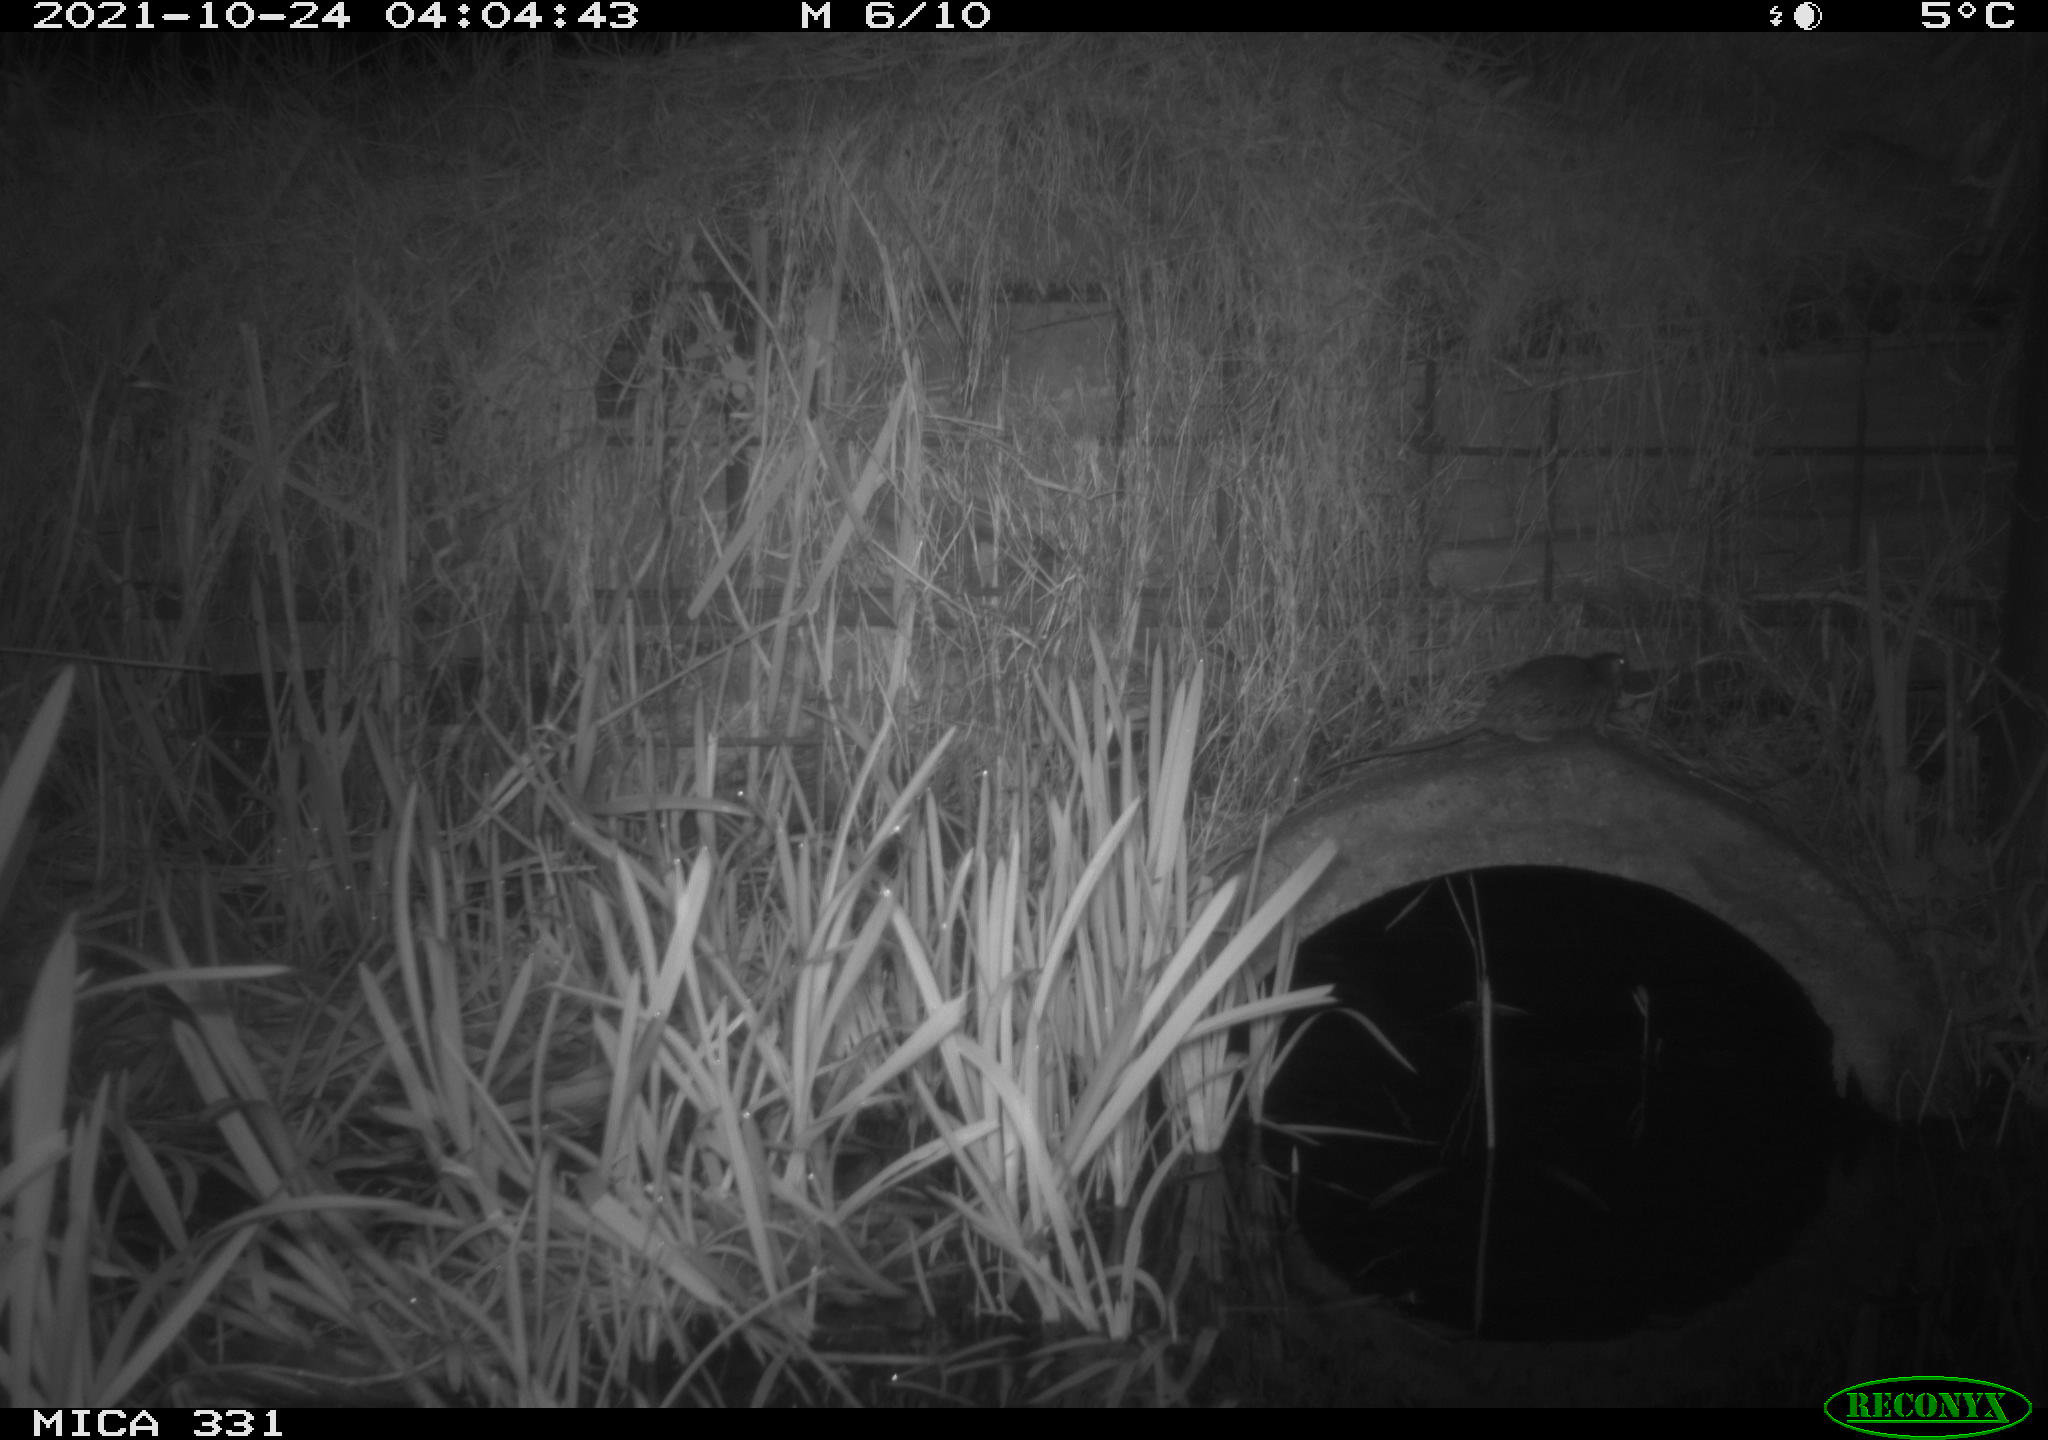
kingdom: Animalia
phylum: Chordata
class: Mammalia
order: Rodentia
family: Muridae
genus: Rattus
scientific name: Rattus norvegicus
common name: Brown rat
